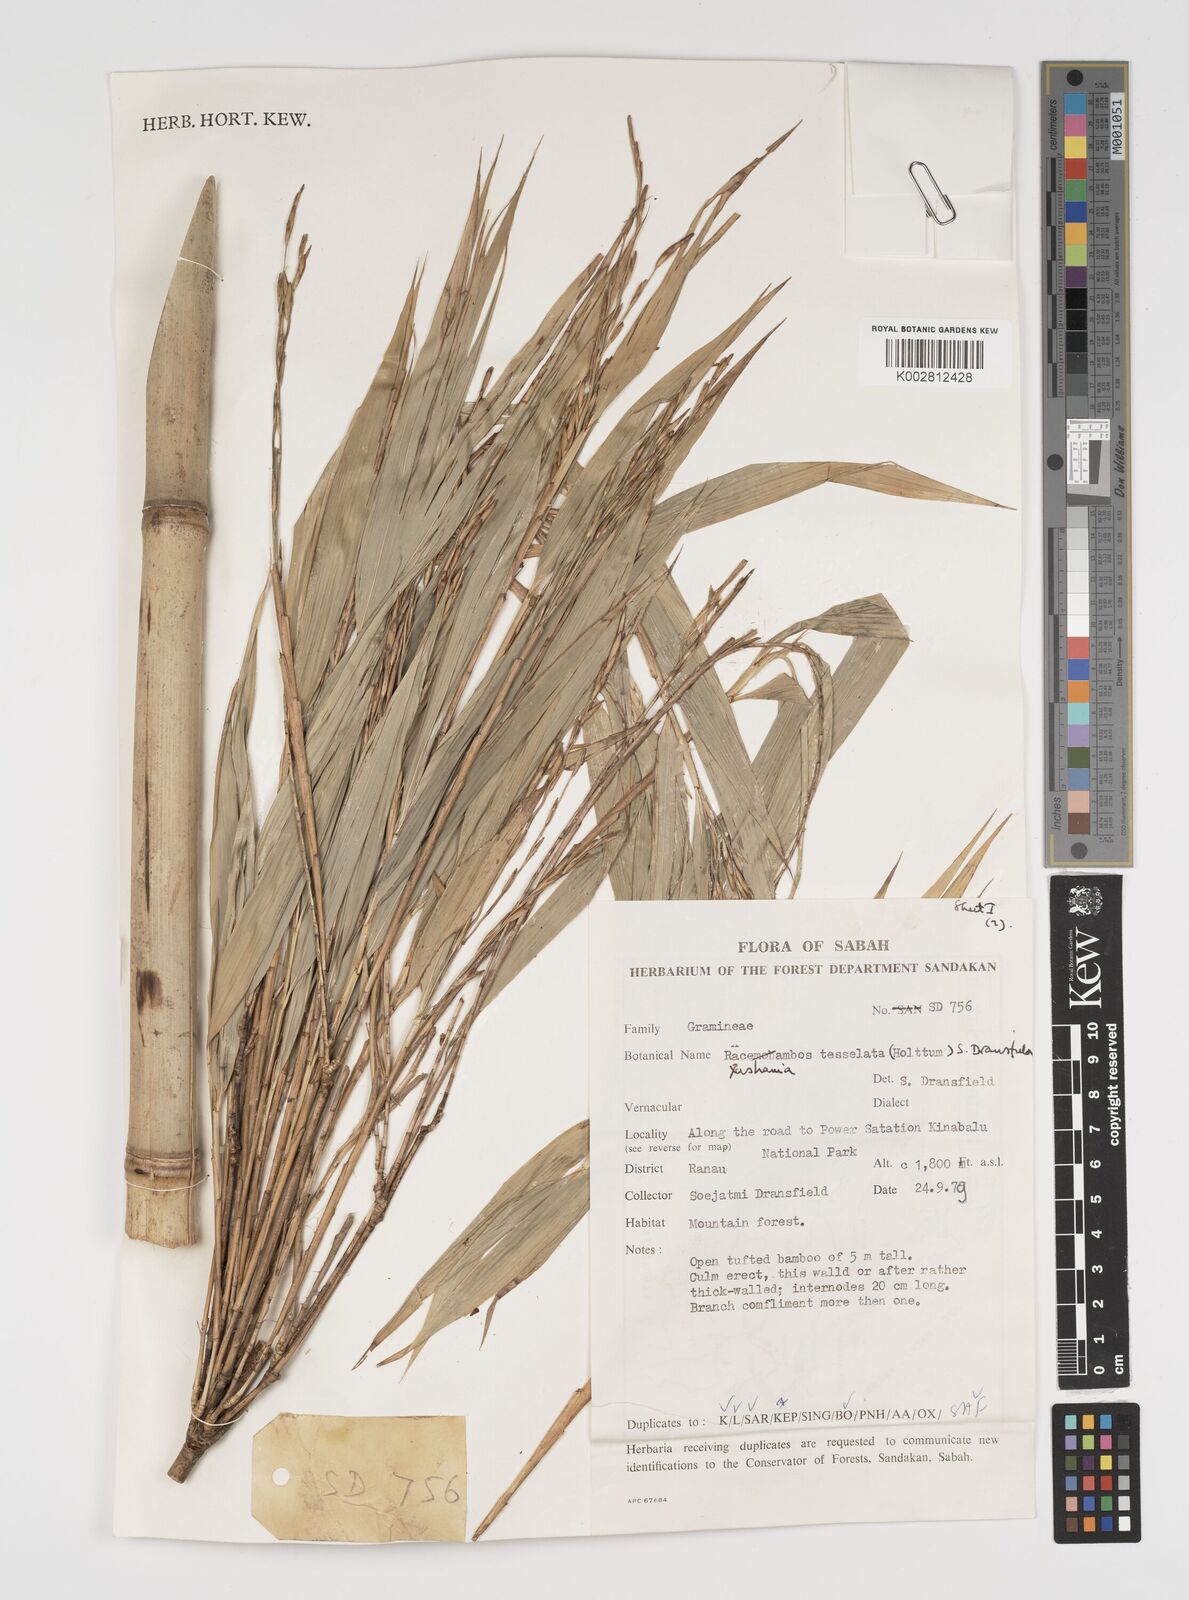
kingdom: Plantae
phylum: Tracheophyta
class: Liliopsida
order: Poales
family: Poaceae
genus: Yushania
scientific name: Yushania
